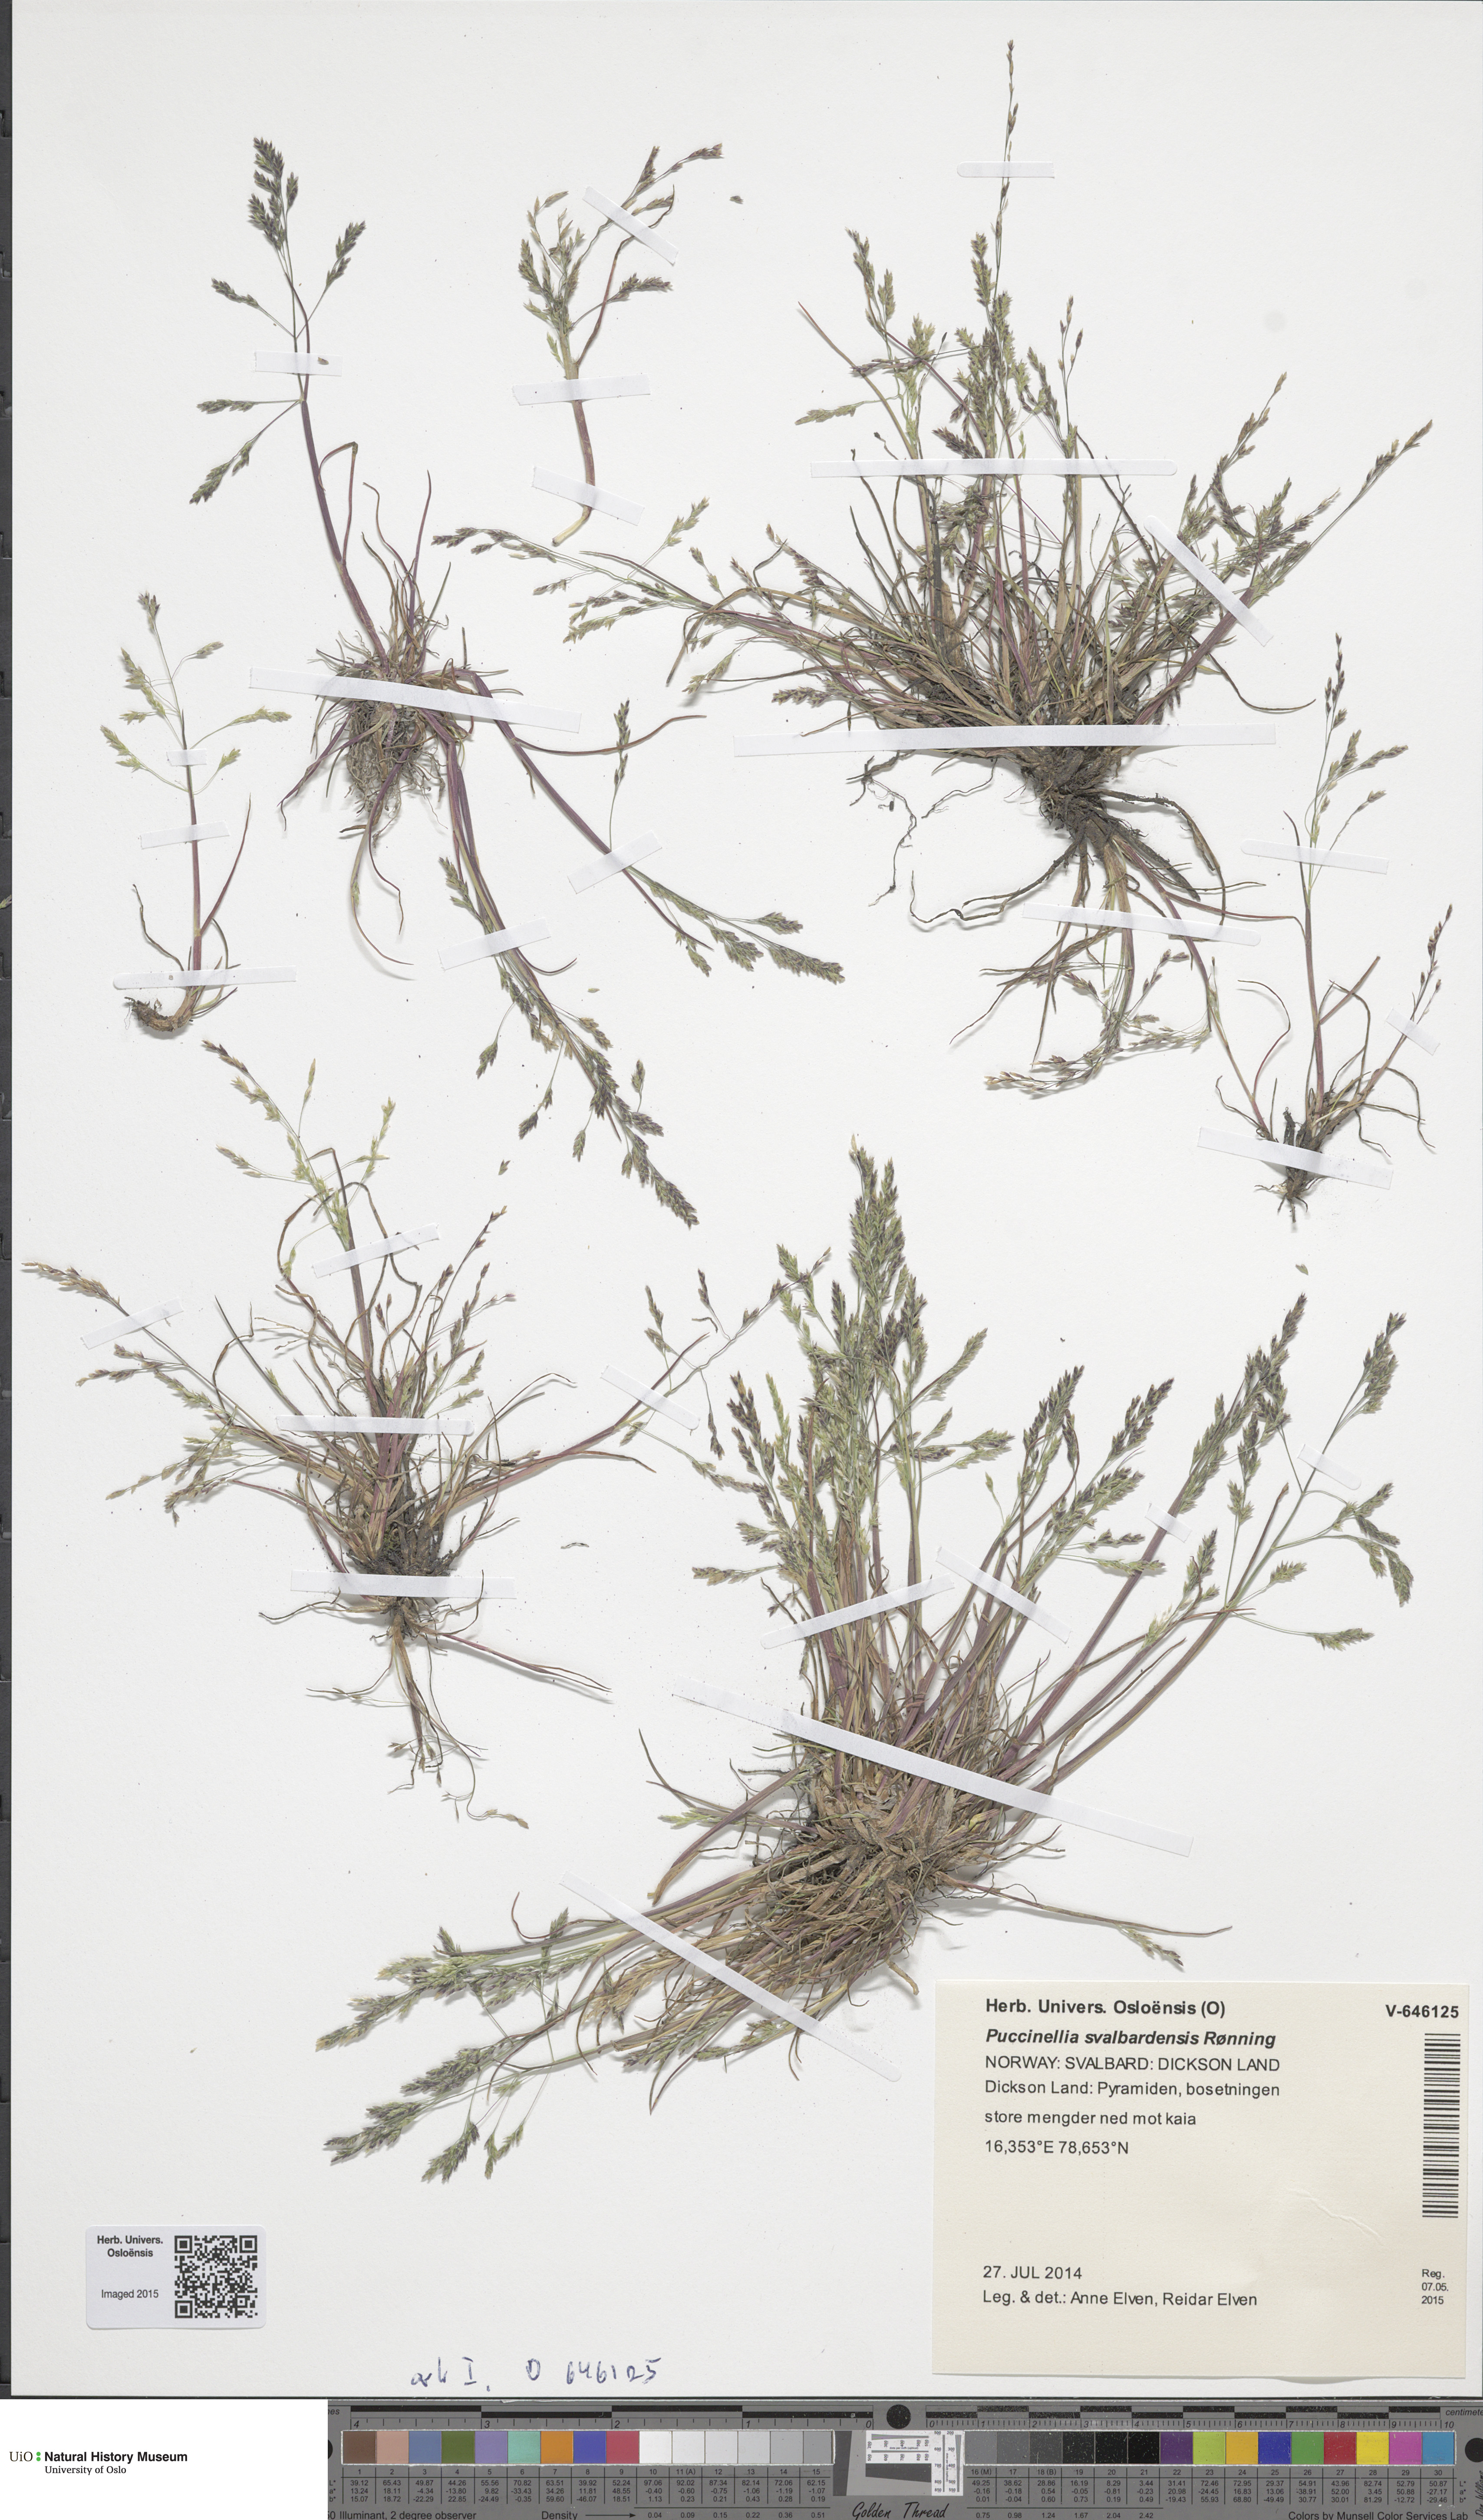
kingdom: Plantae
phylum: Tracheophyta
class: Liliopsida
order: Poales
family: Poaceae
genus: Puccinellia
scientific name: Puccinellia tenella
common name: Tundra alkaligrass
